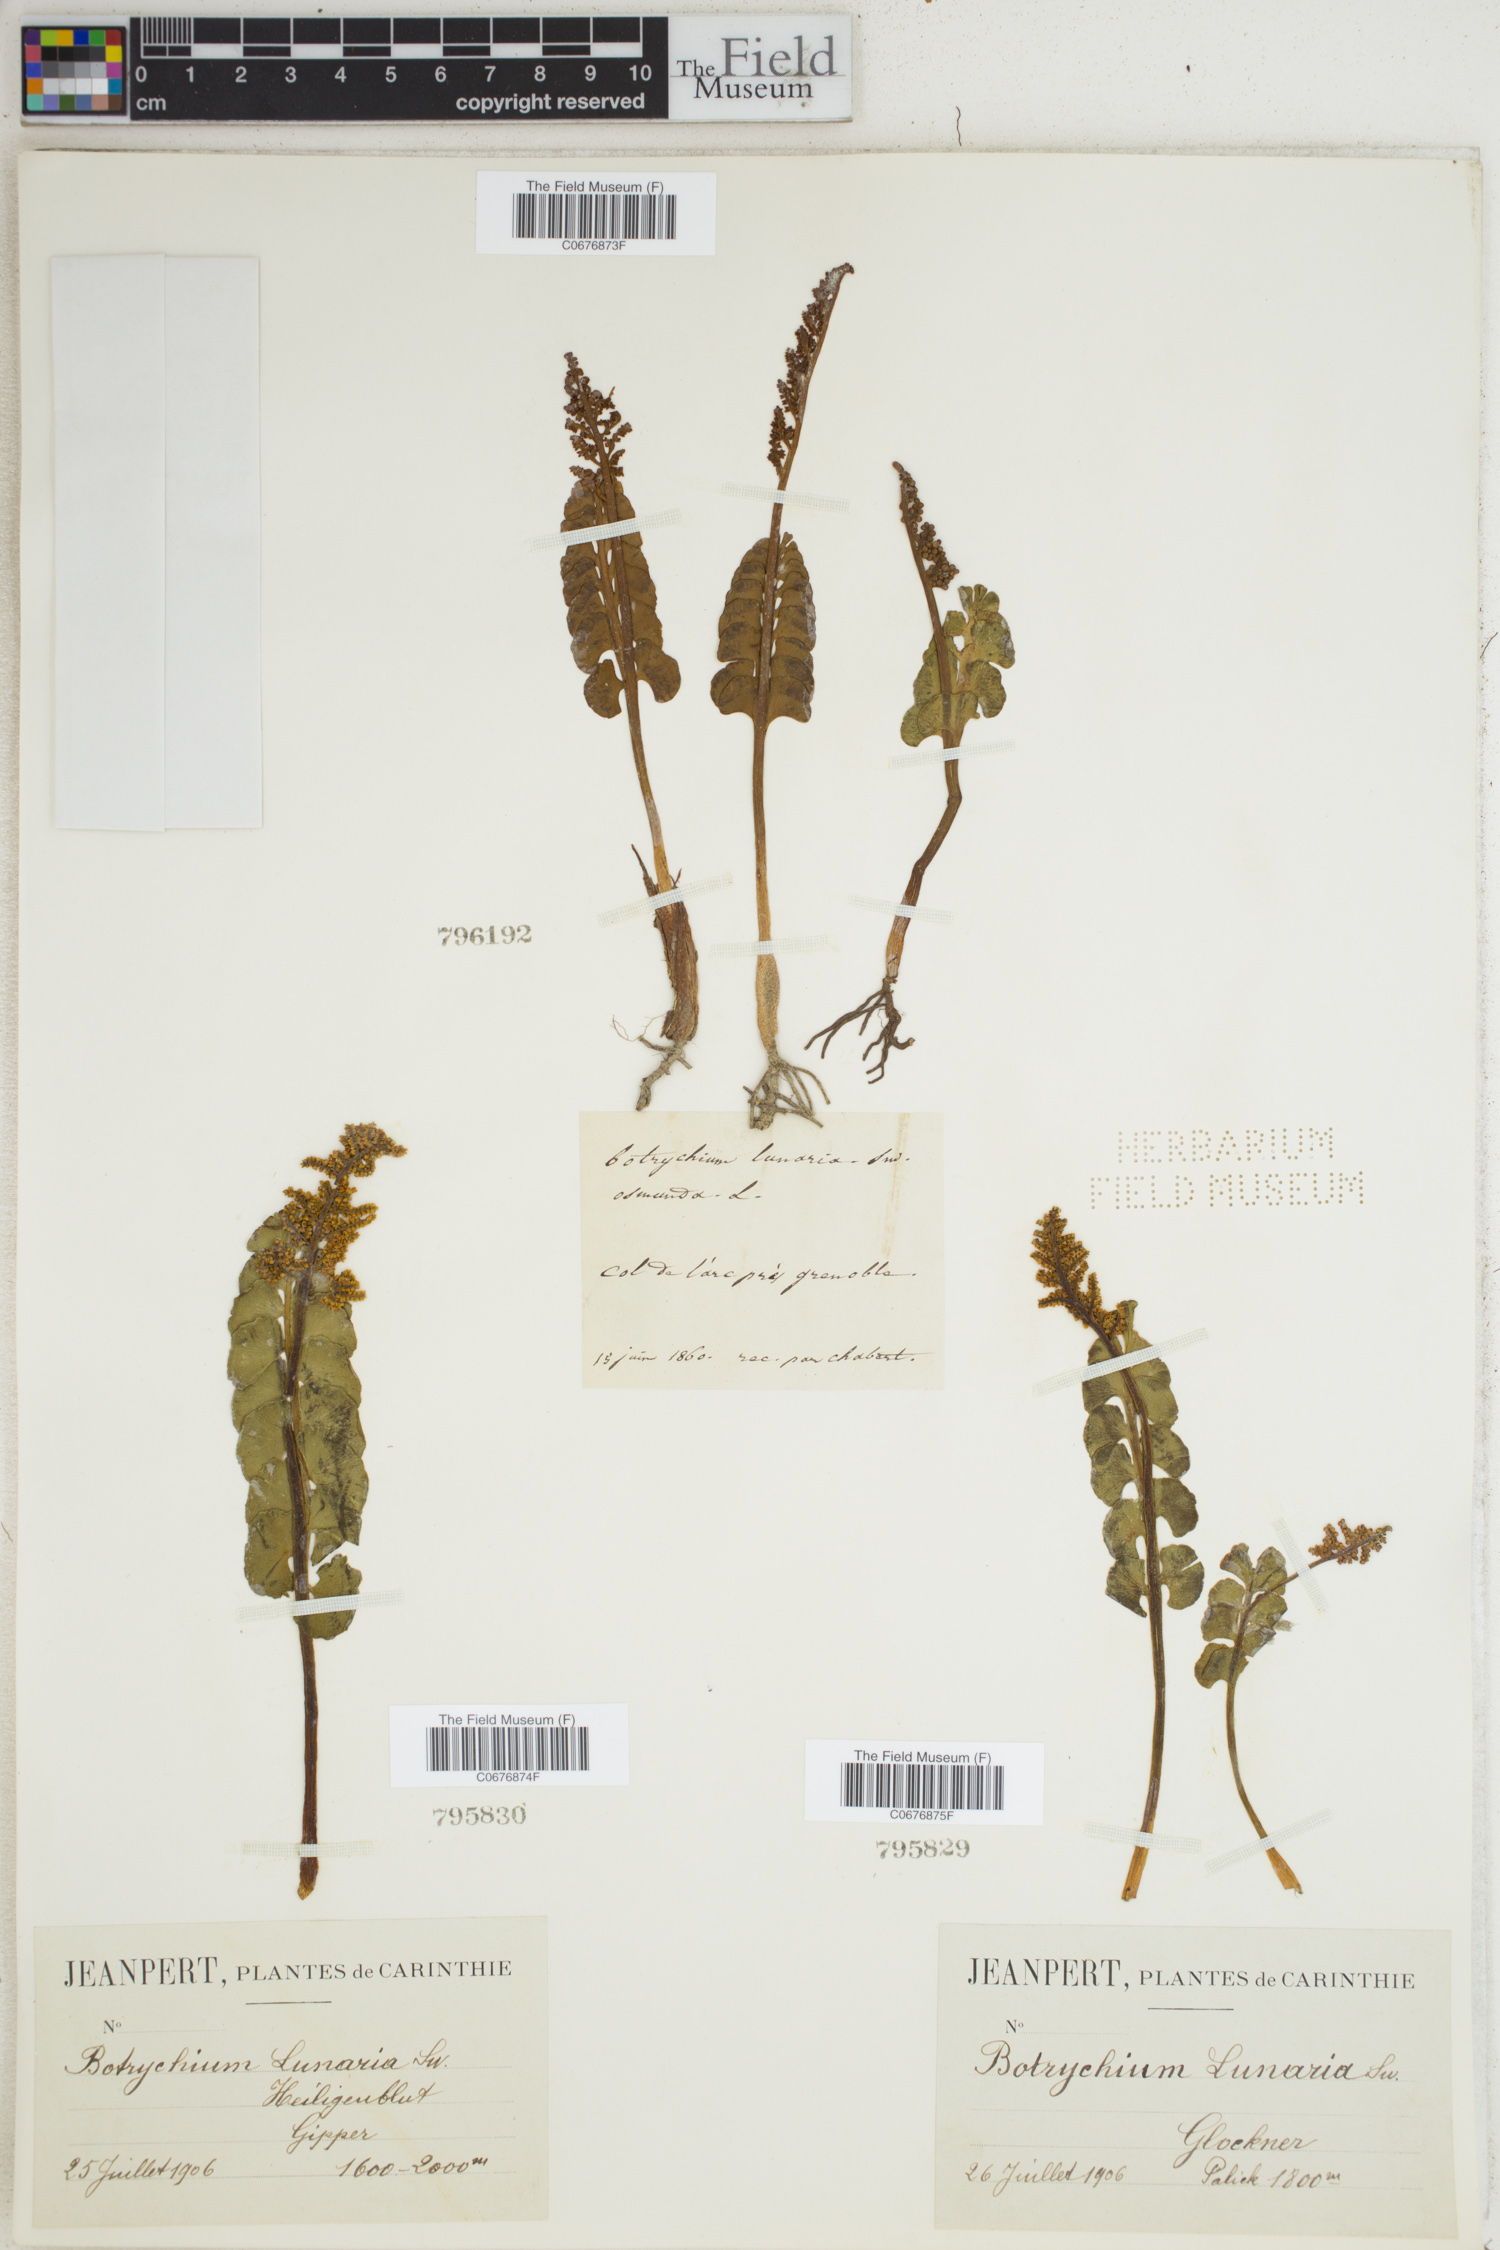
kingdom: Plantae
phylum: Tracheophyta
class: Polypodiopsida
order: Ophioglossales
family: Ophioglossaceae
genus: Botrychium
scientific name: Botrychium lunaria
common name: Moonwort
